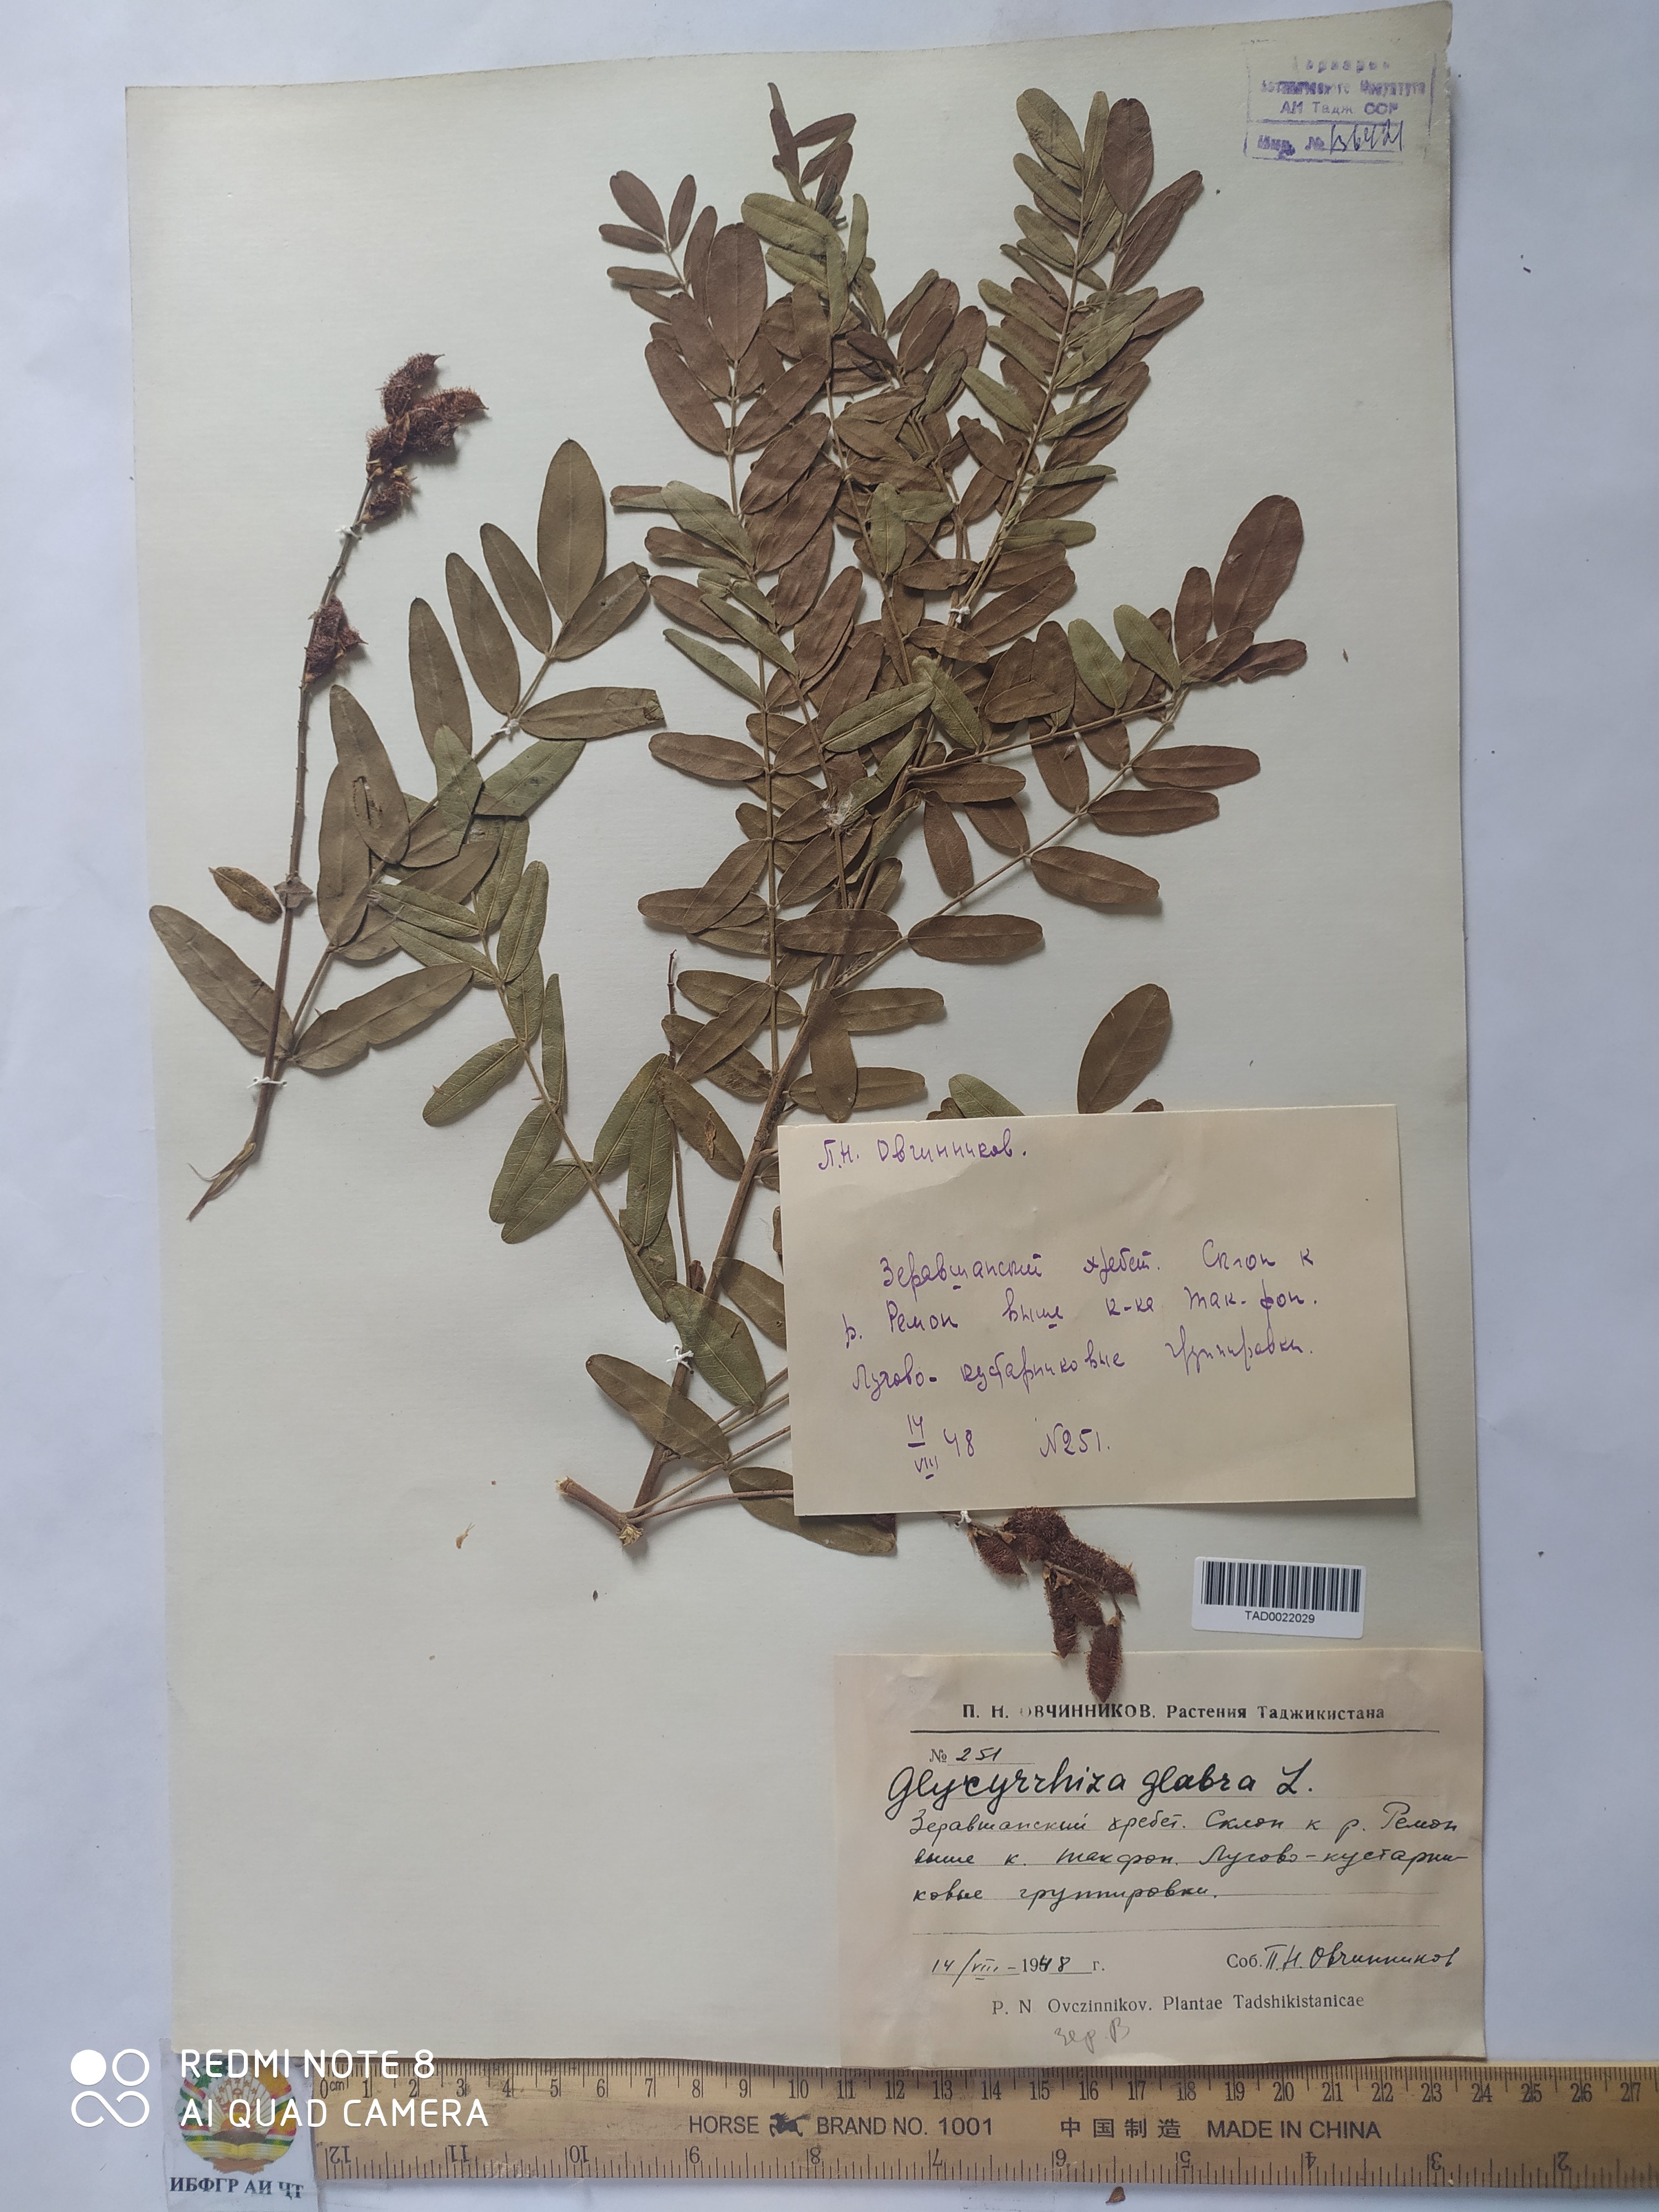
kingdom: Plantae
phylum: Tracheophyta
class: Magnoliopsida
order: Fabales
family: Fabaceae
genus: Glycyrrhiza
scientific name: Glycyrrhiza glabra
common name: Liquorice
